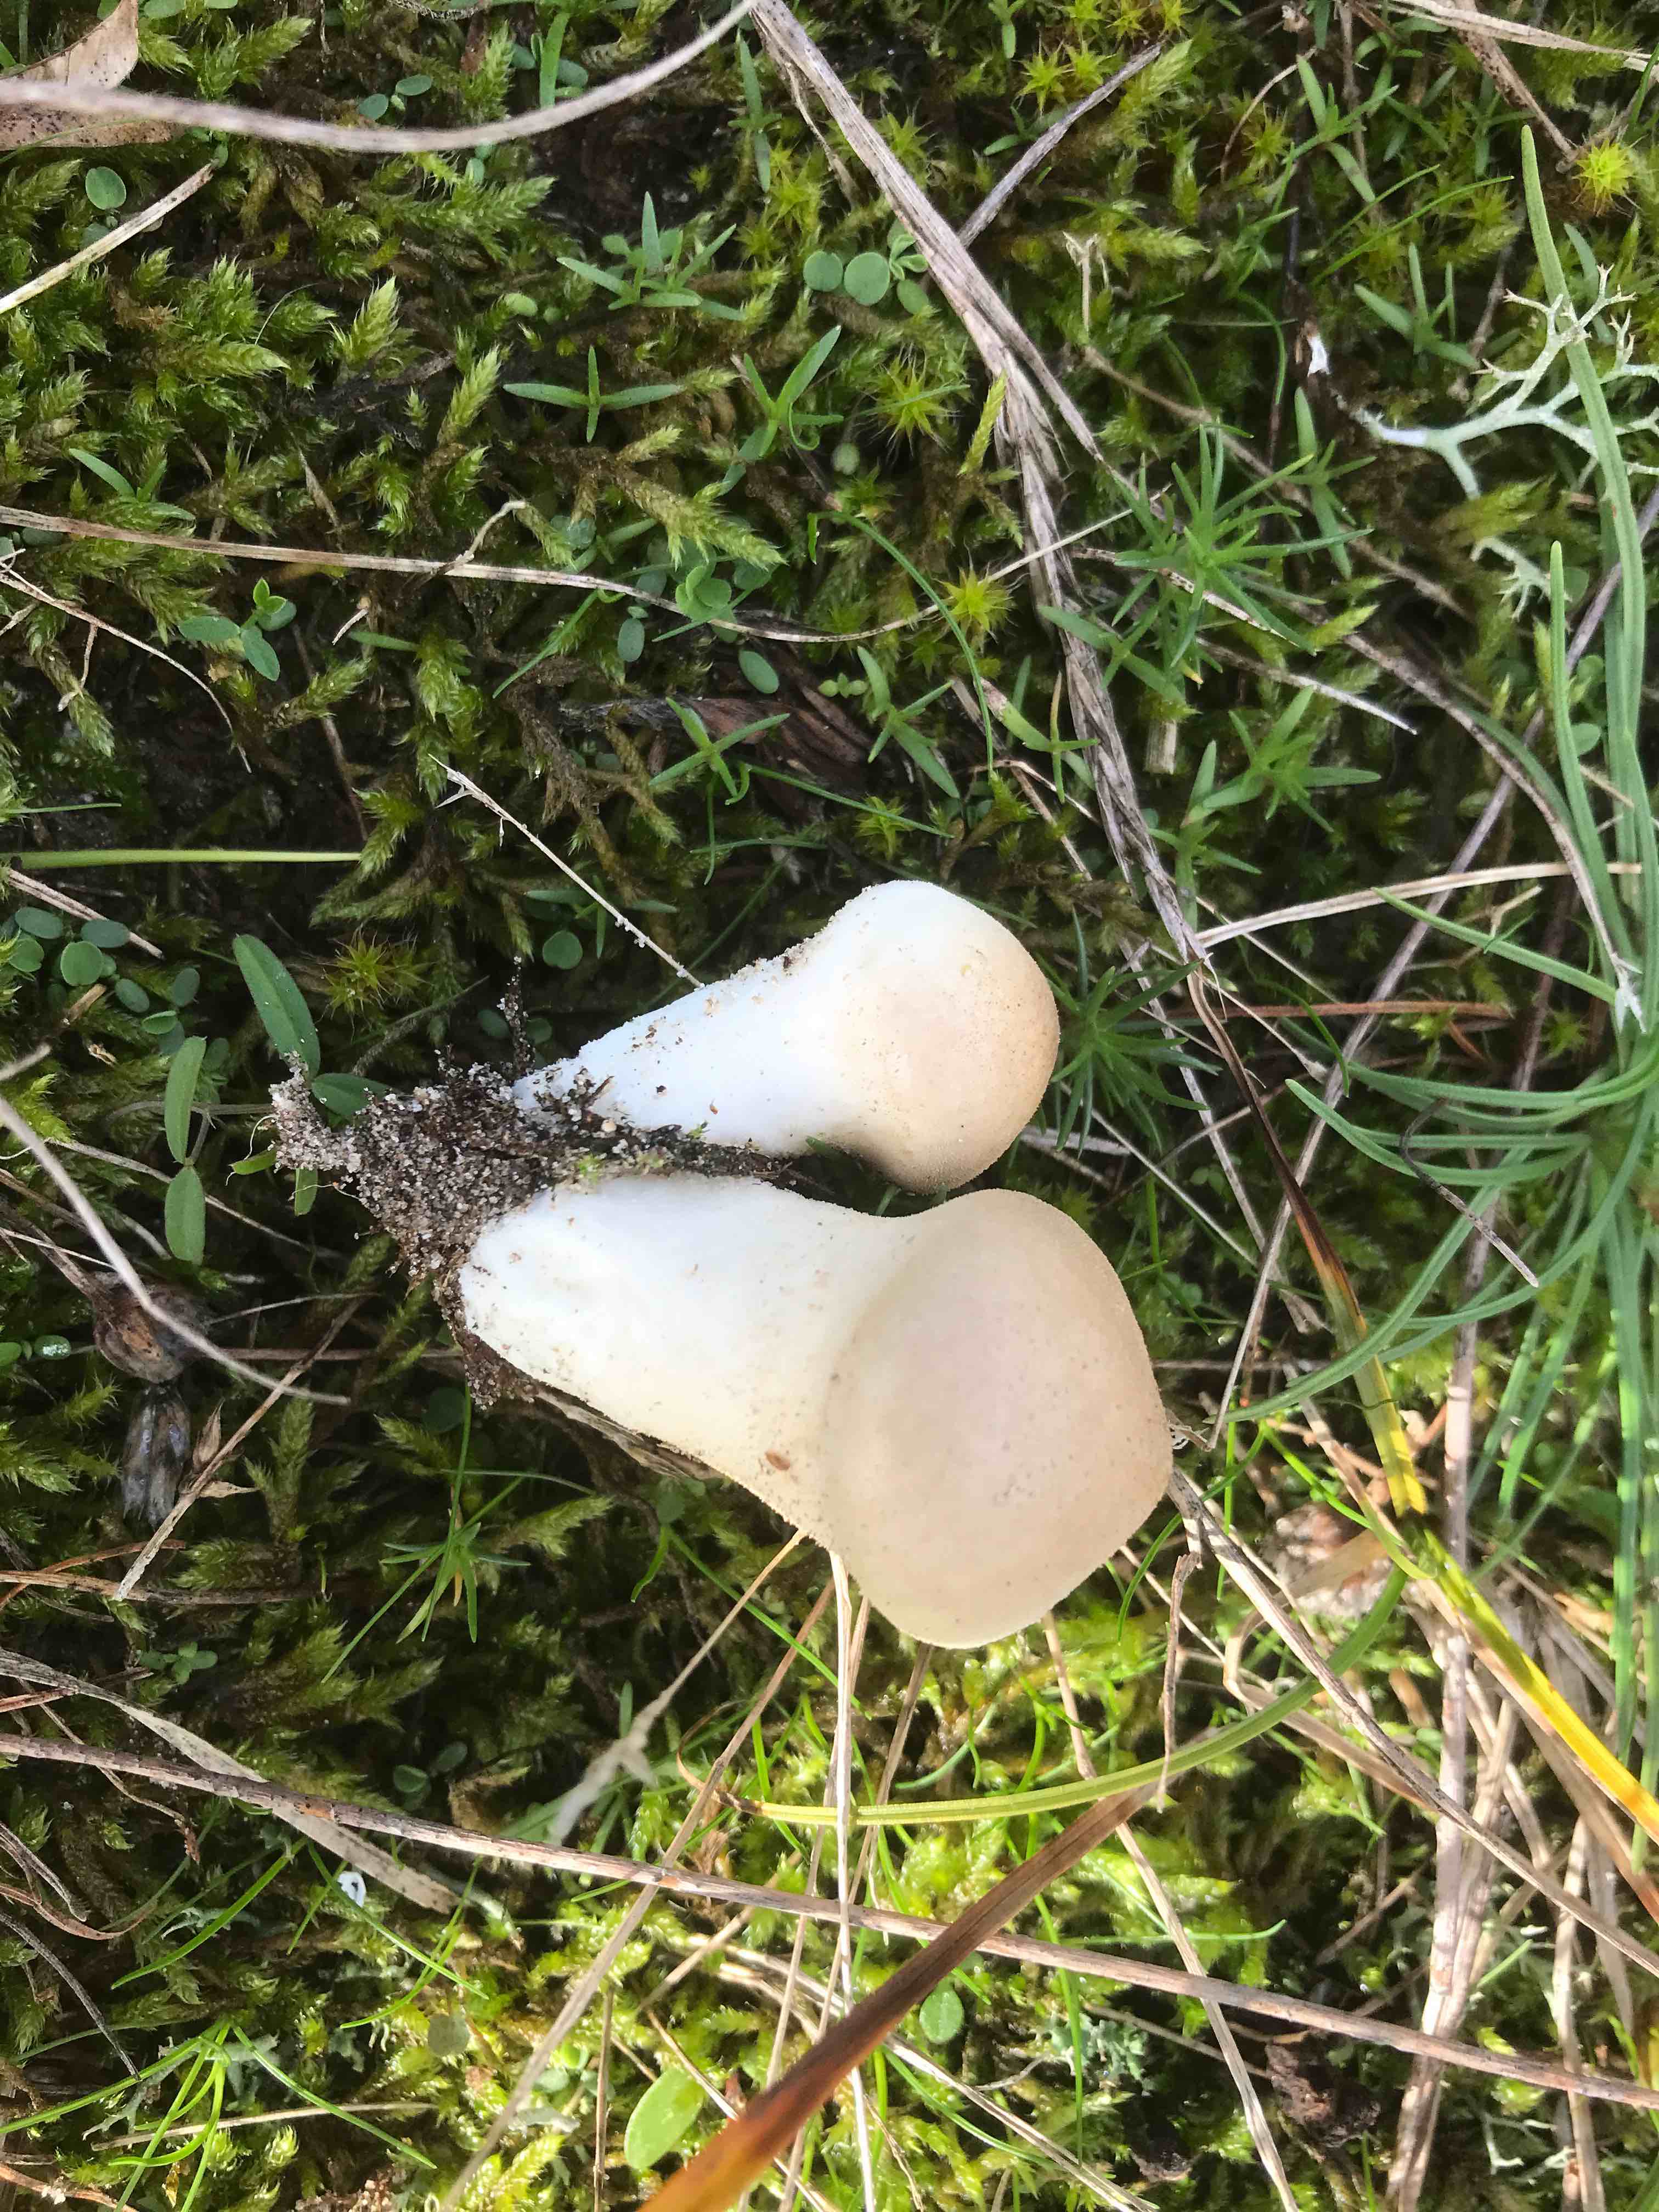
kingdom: Fungi
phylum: Basidiomycota
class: Agaricomycetes
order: Agaricales
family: Lycoperdaceae
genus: Lycoperdon
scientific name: Lycoperdon lividum
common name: mark-støvbold
